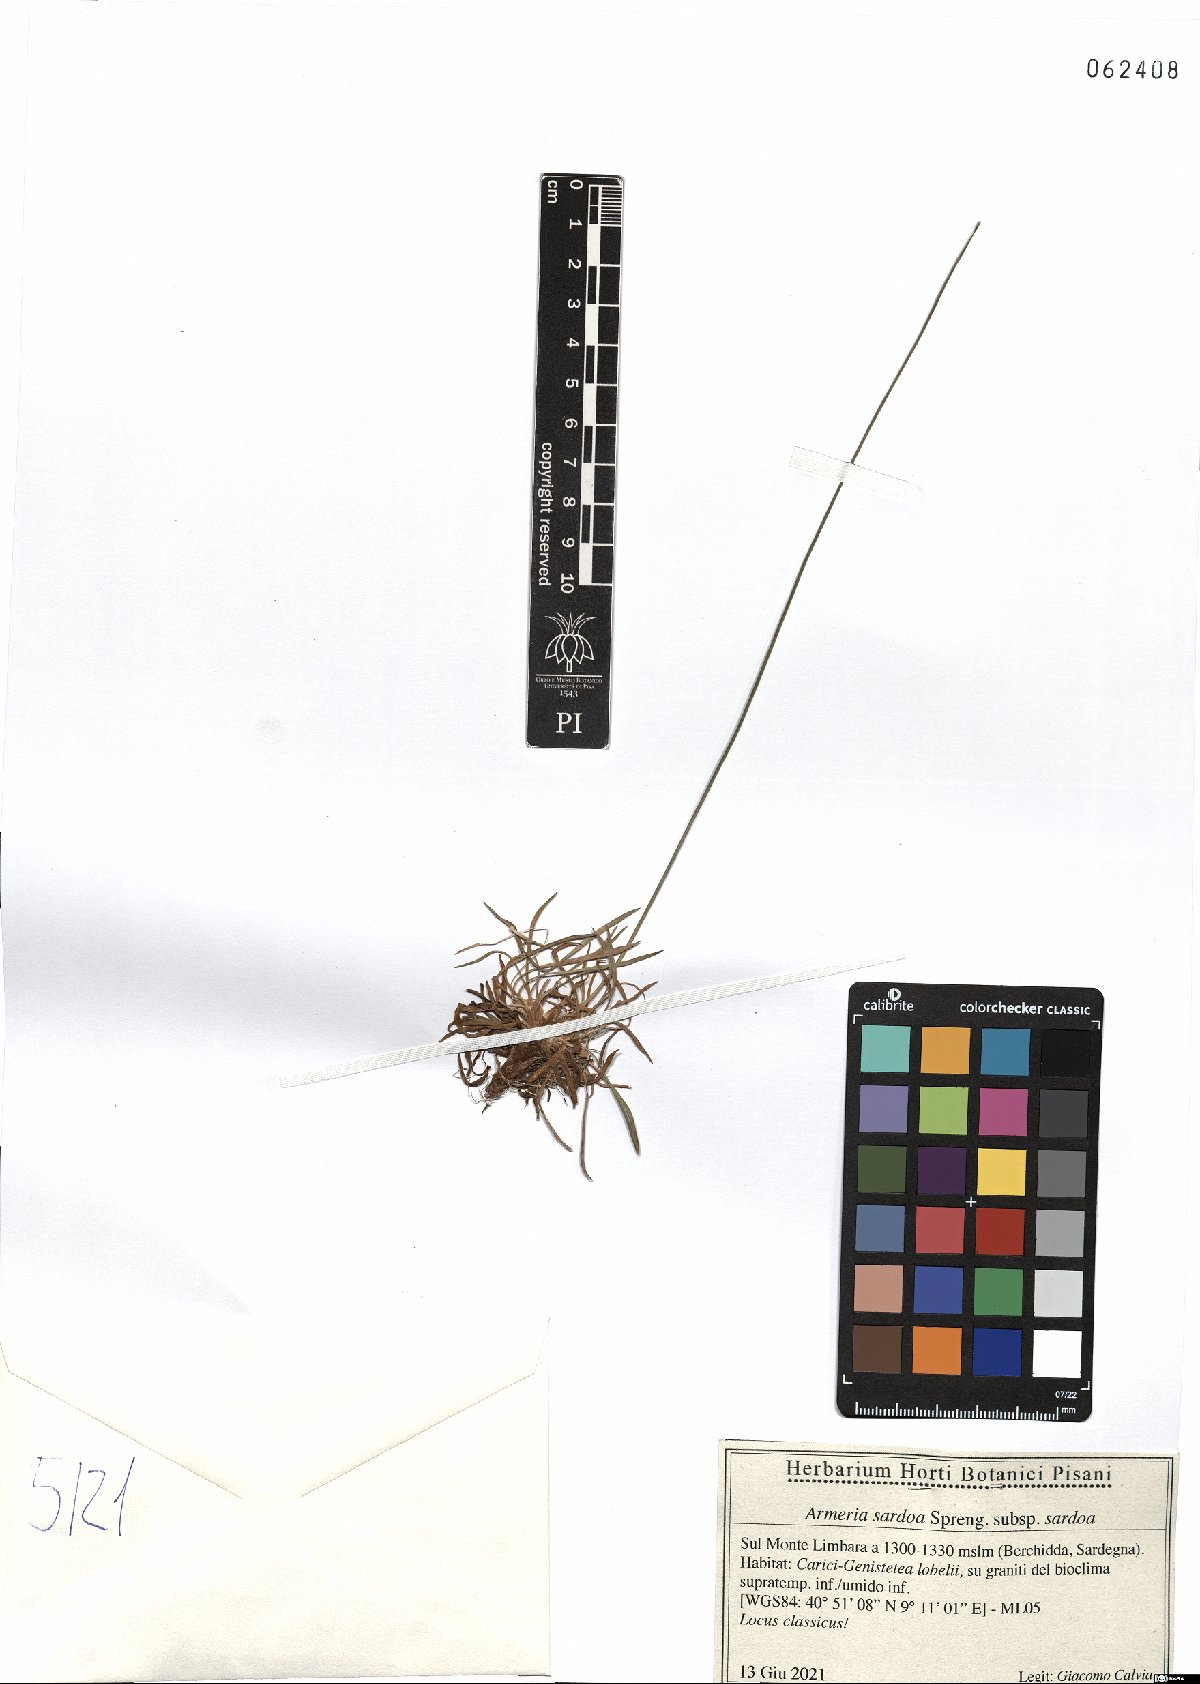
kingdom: Plantae
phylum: Tracheophyta
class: Magnoliopsida
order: Caryophyllales
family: Plumbaginaceae
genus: Armeria
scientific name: Armeria sardoa
